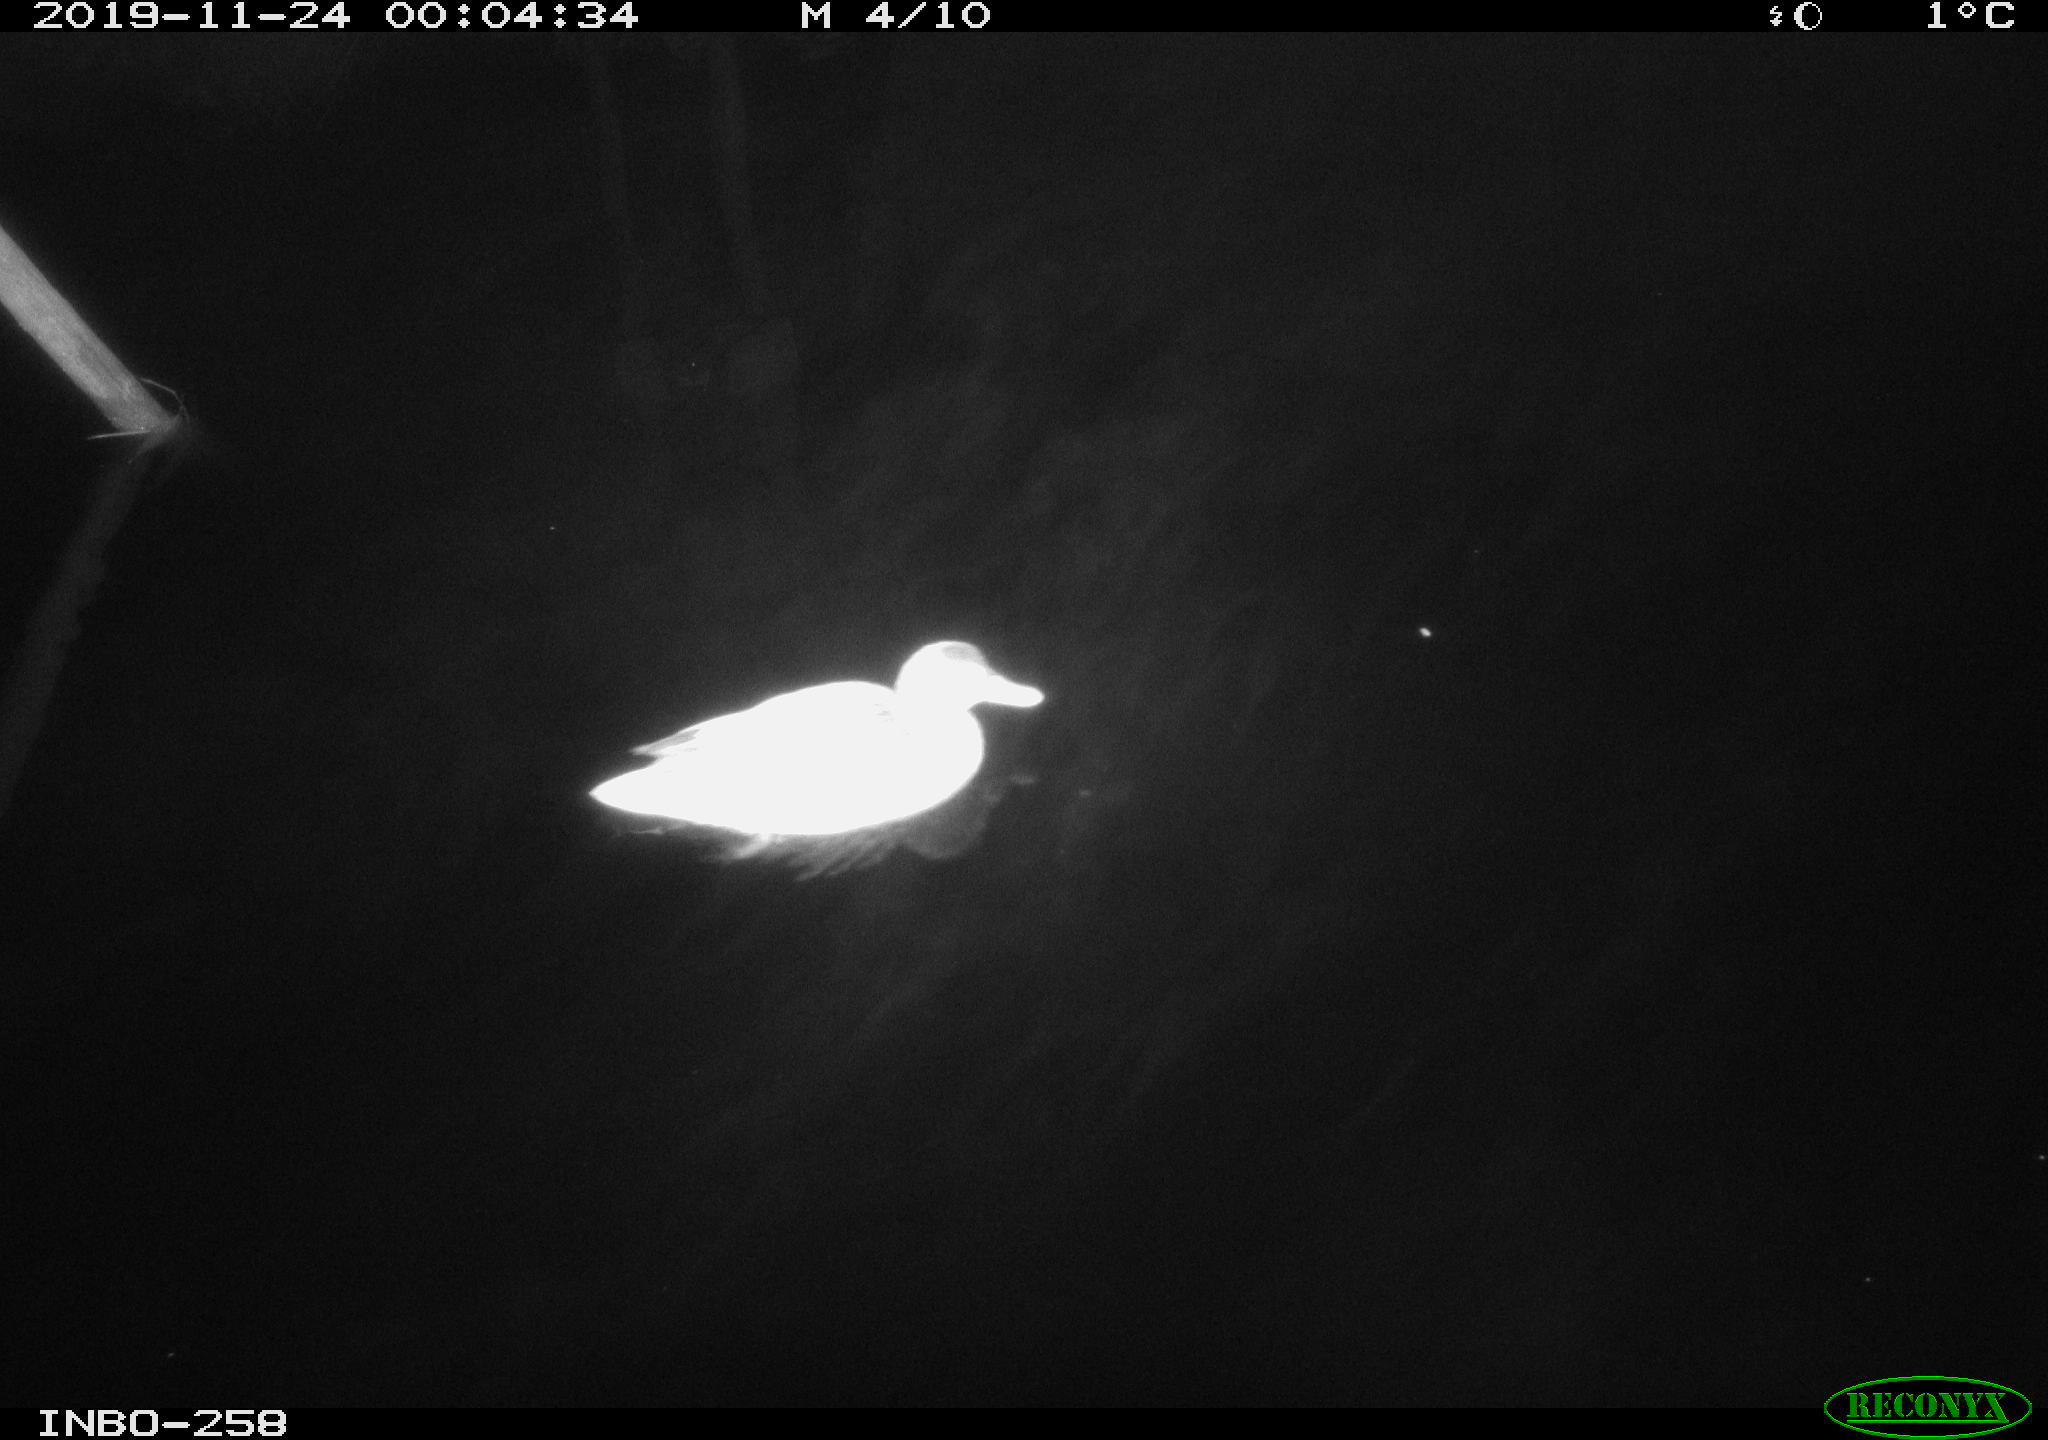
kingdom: Animalia
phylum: Chordata
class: Aves
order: Anseriformes
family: Anatidae
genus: Anas
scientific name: Anas platyrhynchos
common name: Mallard
